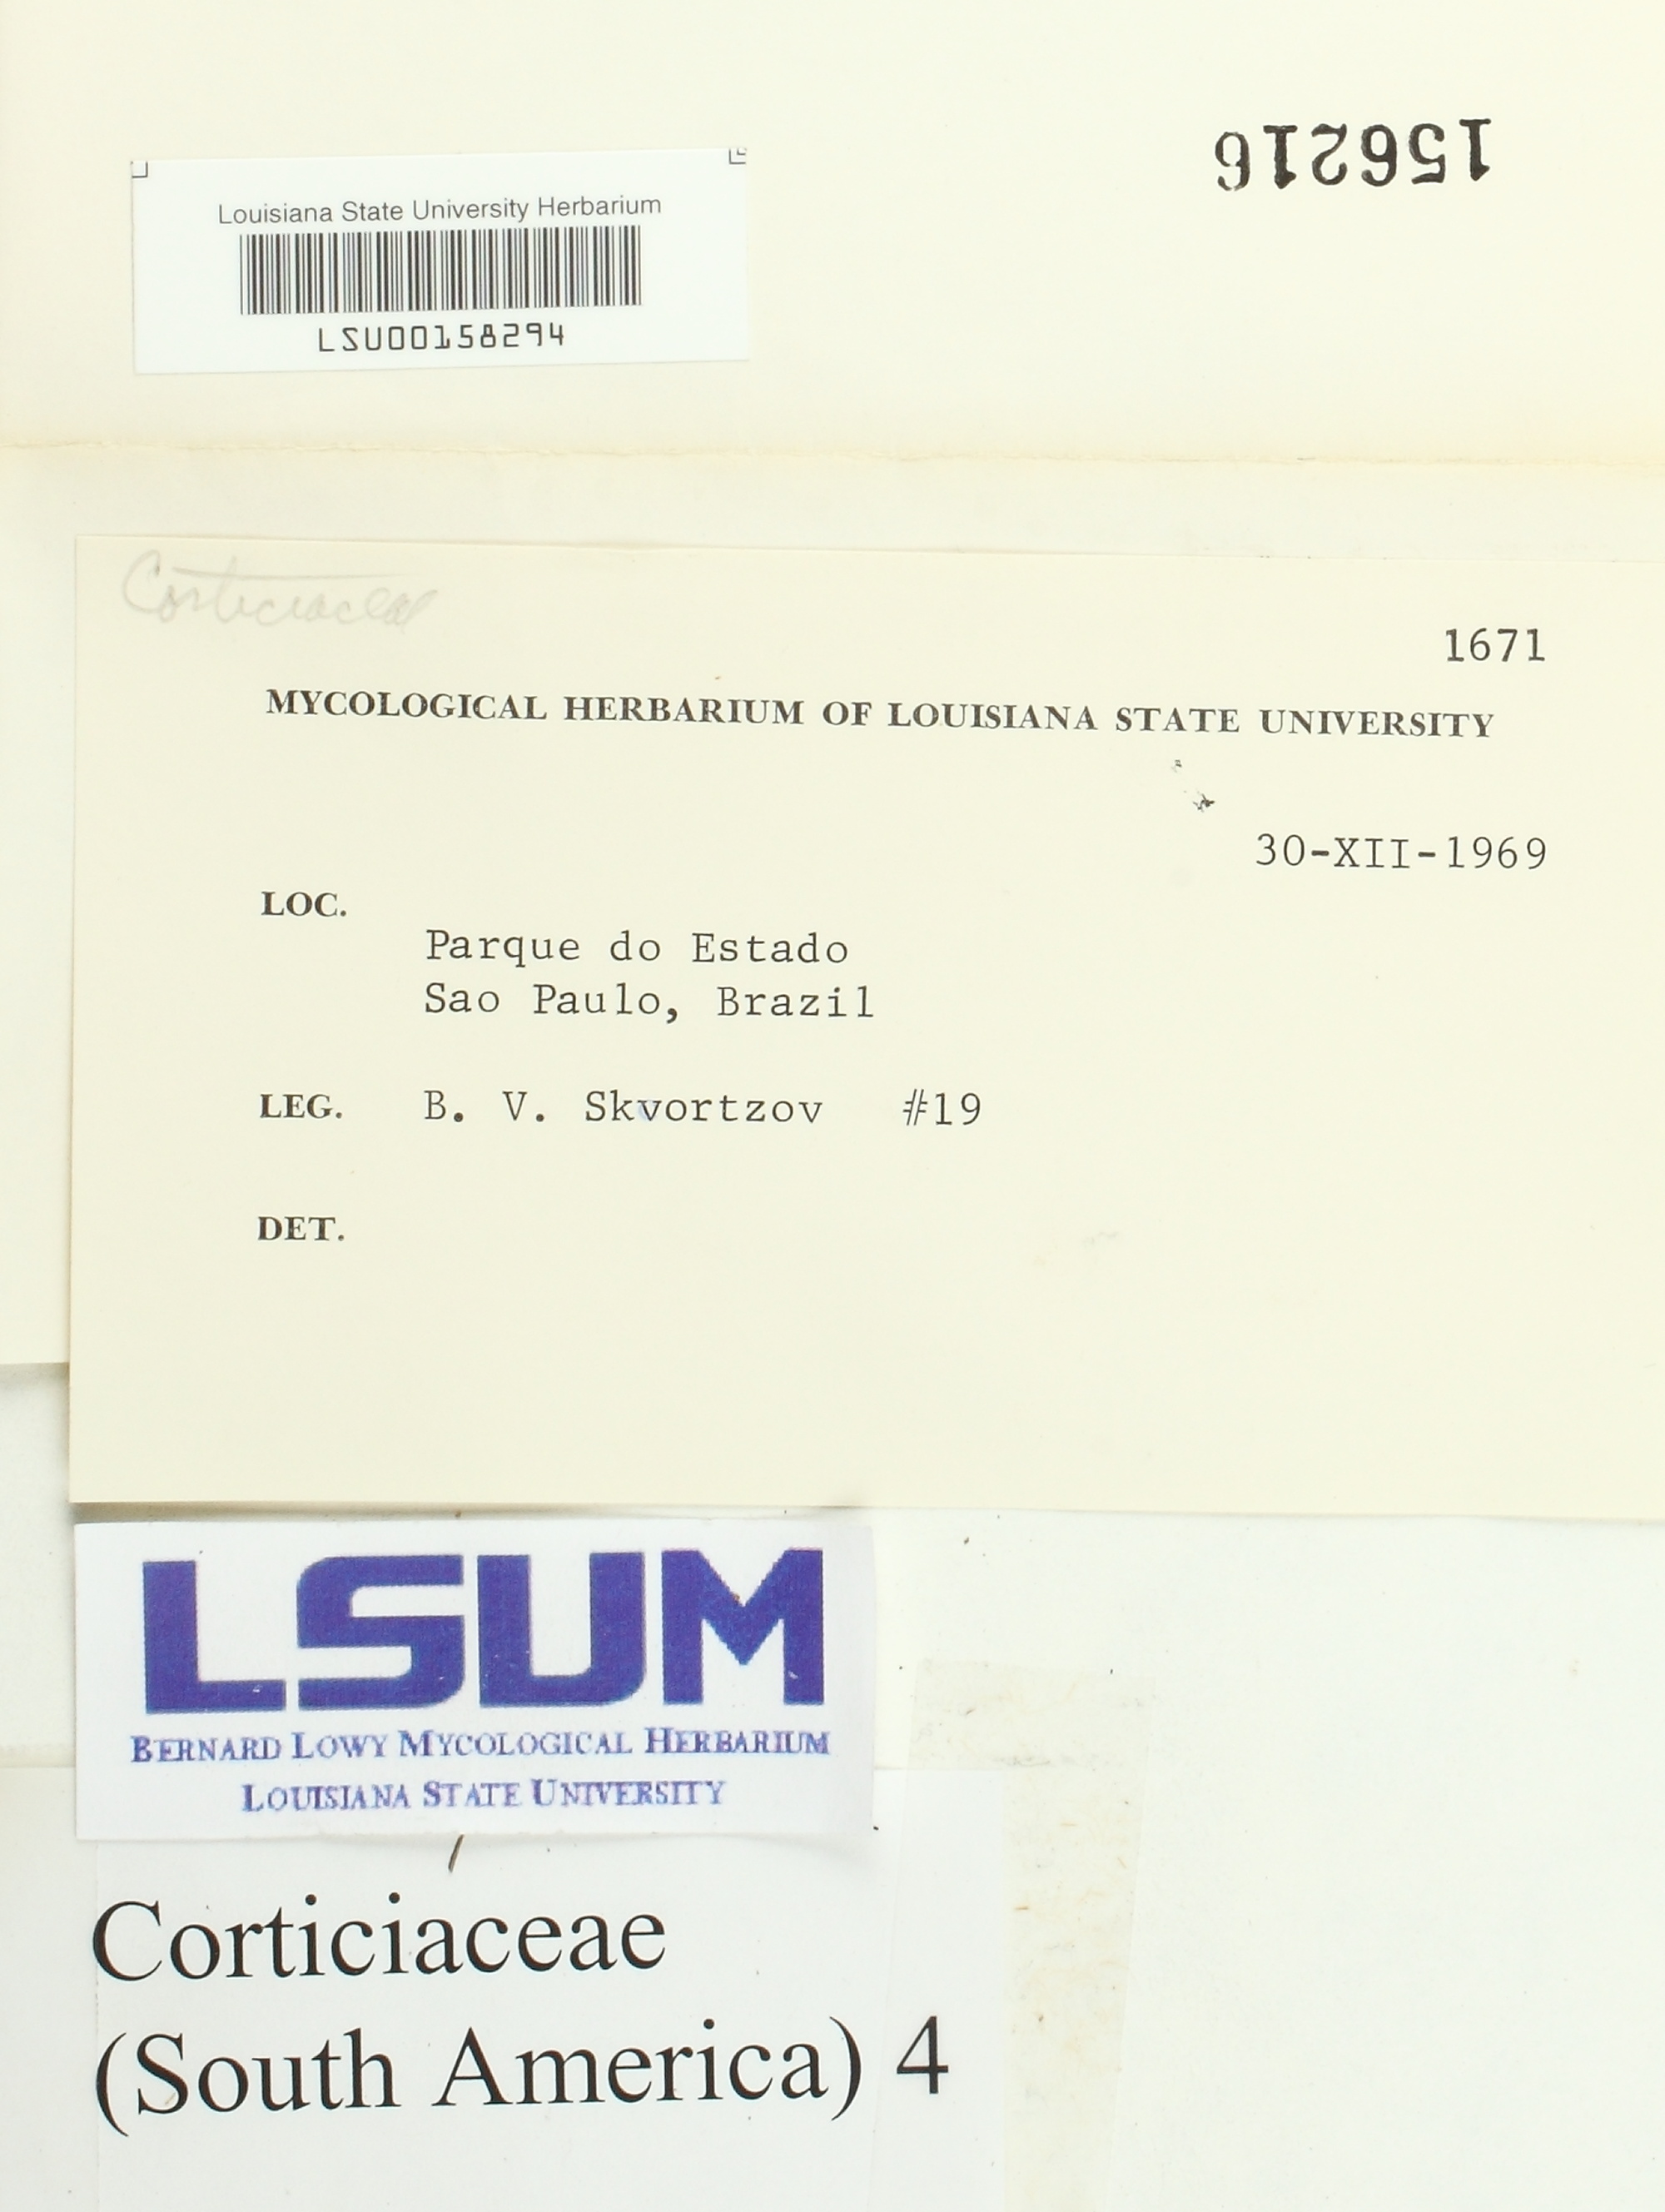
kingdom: Fungi
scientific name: Fungi
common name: Fungi
